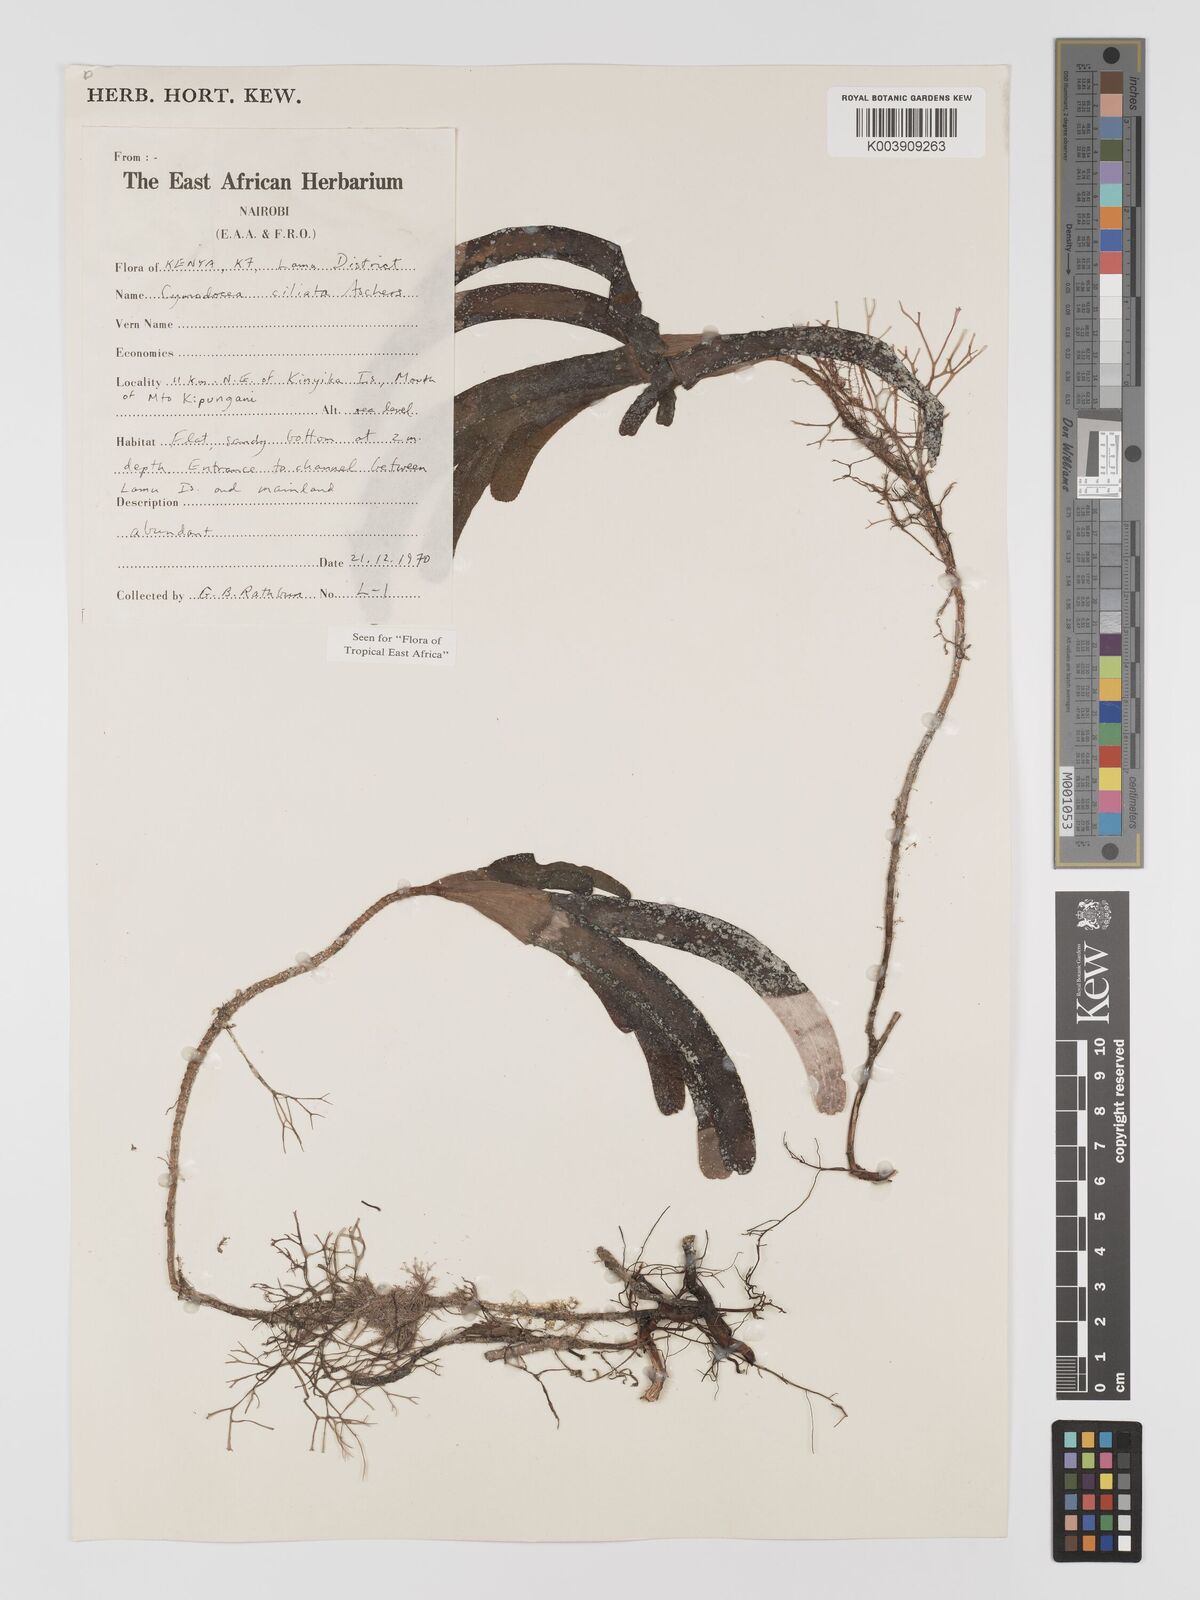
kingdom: Plantae
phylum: Tracheophyta
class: Liliopsida
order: Alismatales
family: Cymodoceaceae
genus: Thalassodendron
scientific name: Thalassodendron ciliatum
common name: Species code: tc
